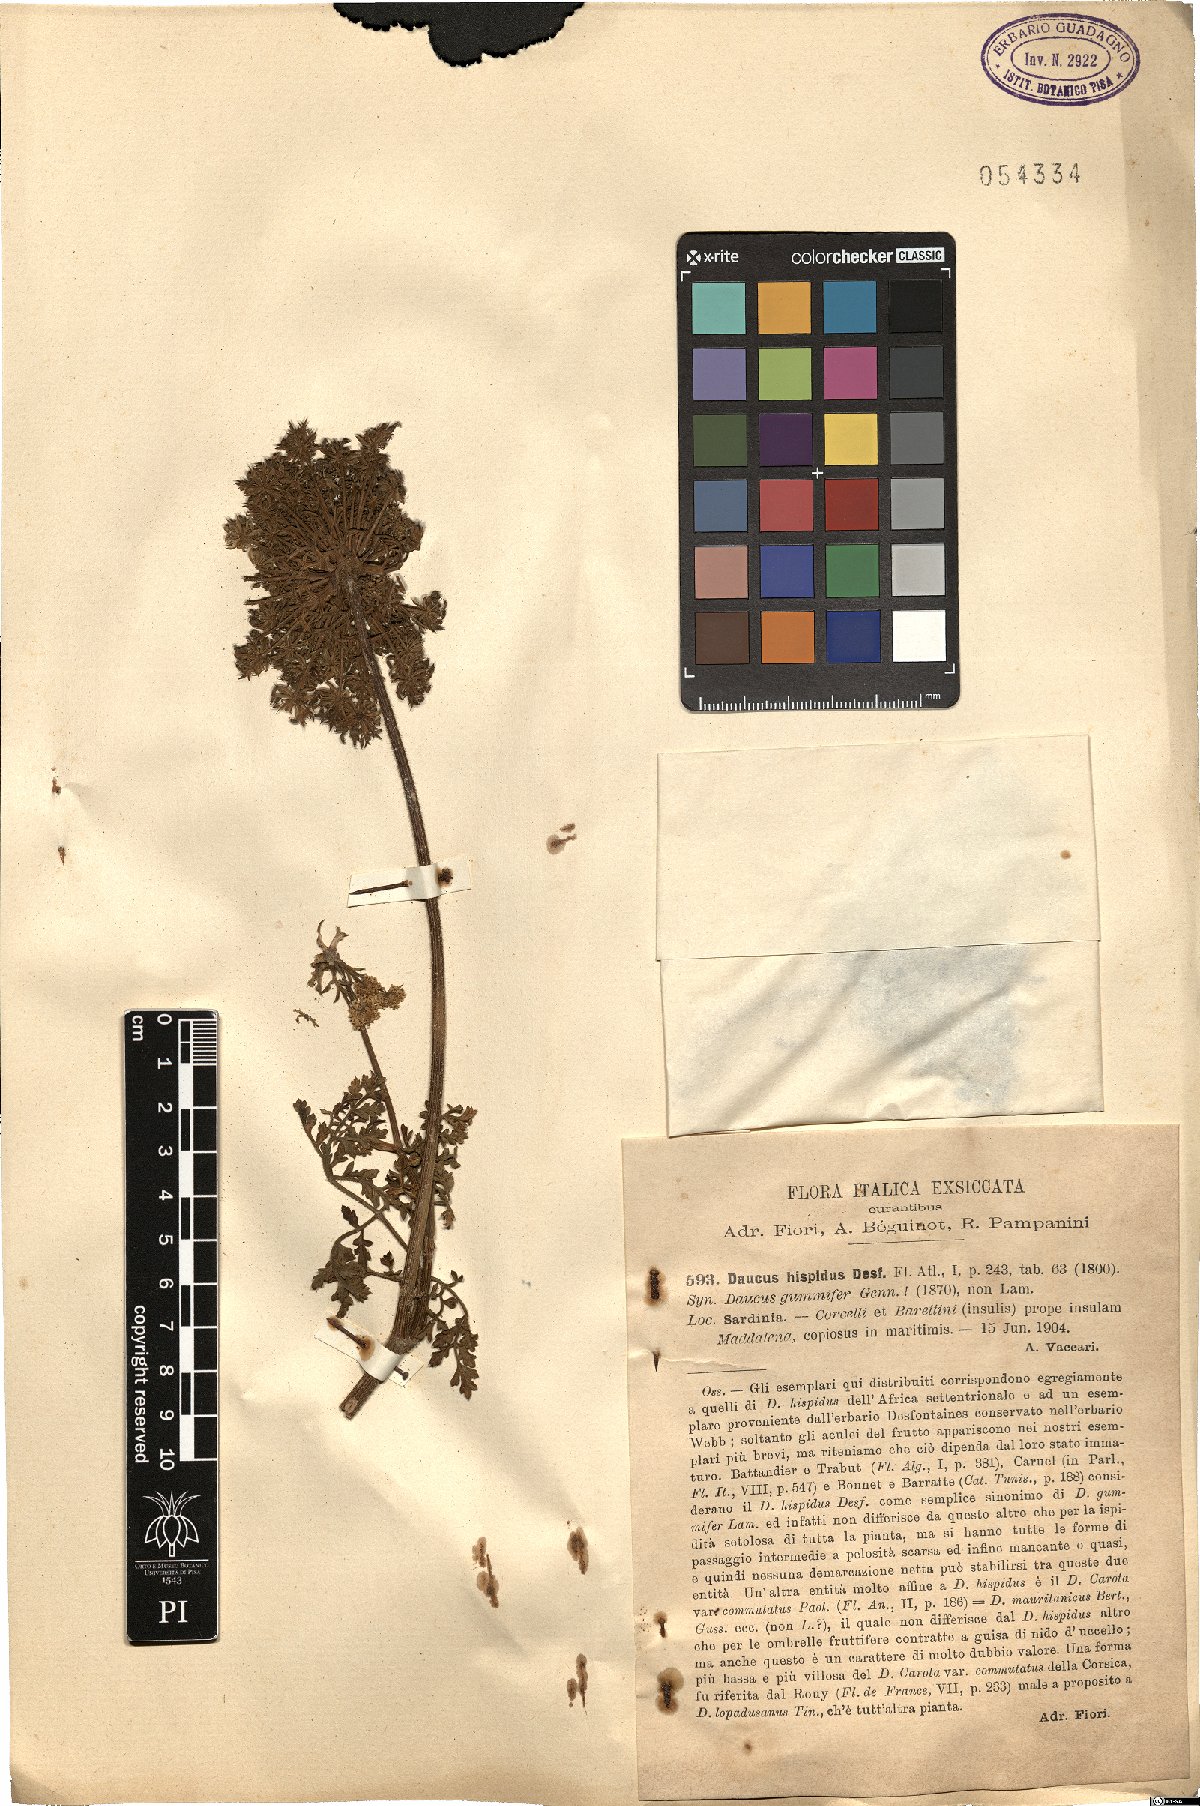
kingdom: Plantae
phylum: Tracheophyta
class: Magnoliopsida
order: Apiales
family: Apiaceae
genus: Daucus
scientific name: Daucus carota
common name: Wild carrot
